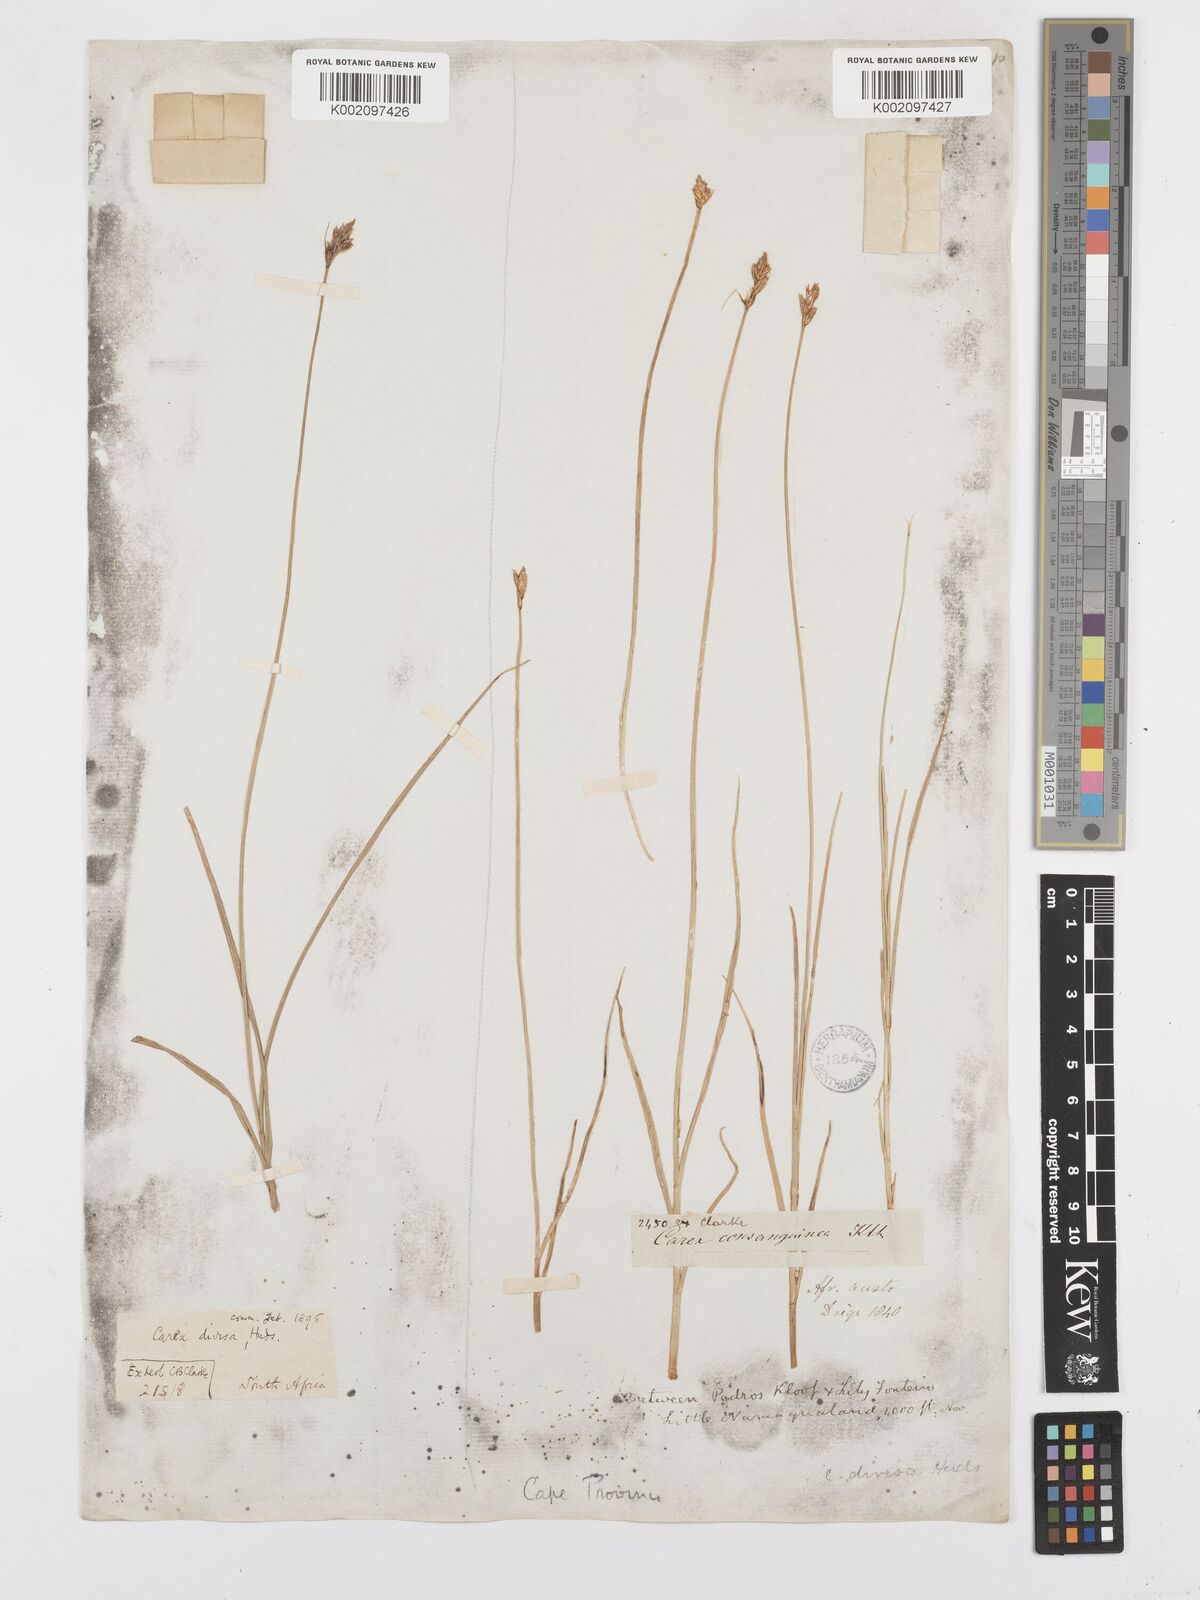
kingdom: Plantae
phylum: Tracheophyta
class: Liliopsida
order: Poales
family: Cyperaceae
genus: Carex
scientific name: Carex divisa
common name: Divided sedge
